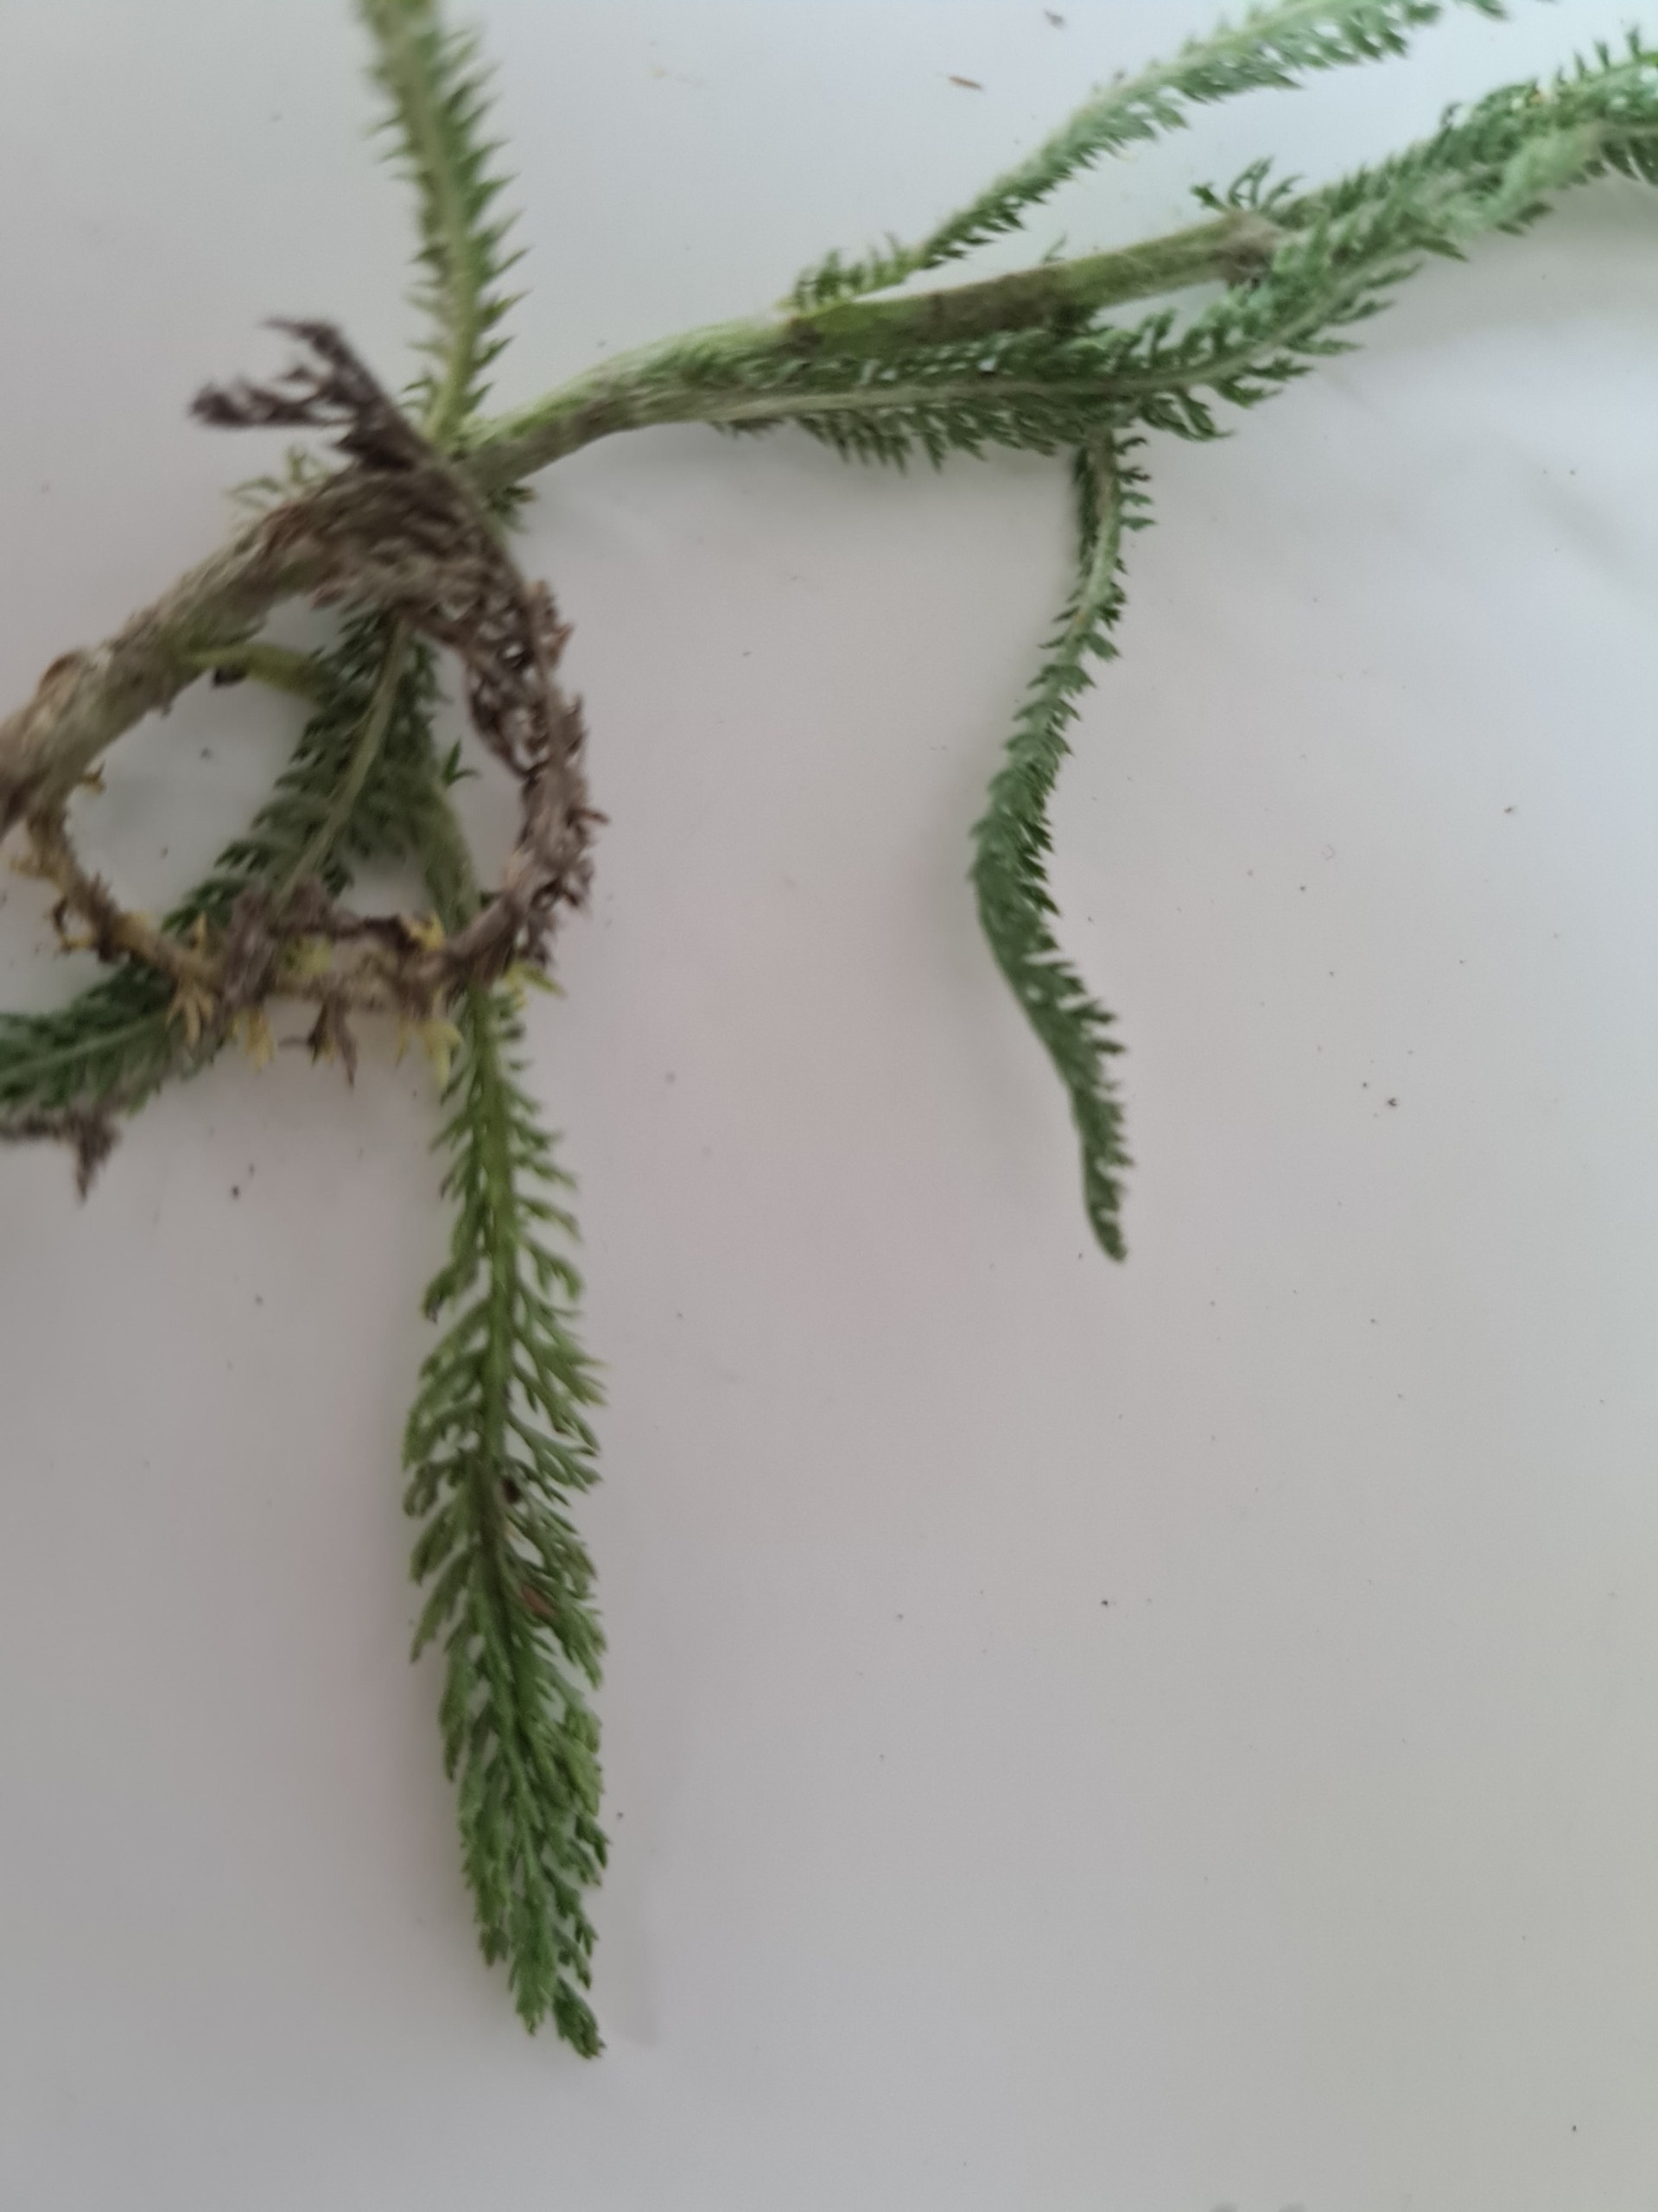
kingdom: Plantae
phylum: Tracheophyta
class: Magnoliopsida
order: Asterales
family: Asteraceae
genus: Achillea
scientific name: Achillea millefolium
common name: Almindelig røllike
